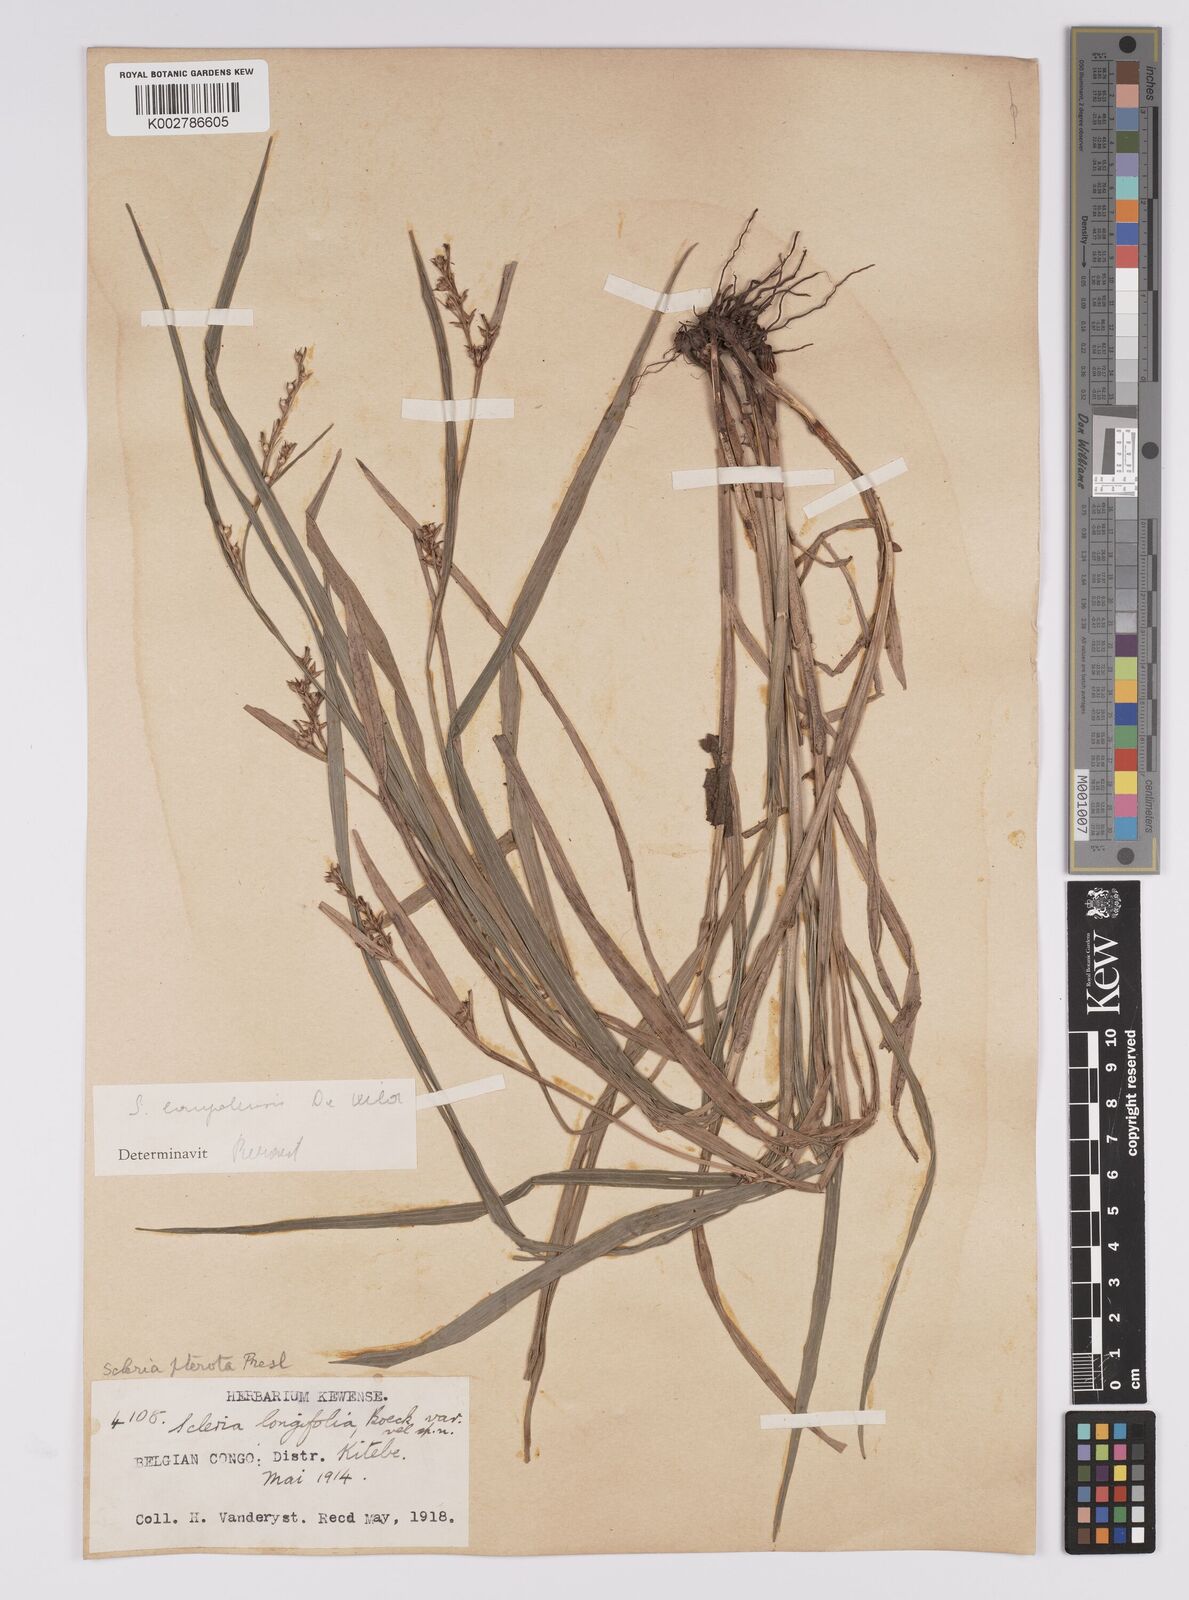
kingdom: Plantae
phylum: Tracheophyta
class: Liliopsida
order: Poales
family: Cyperaceae
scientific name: Cyperaceae
